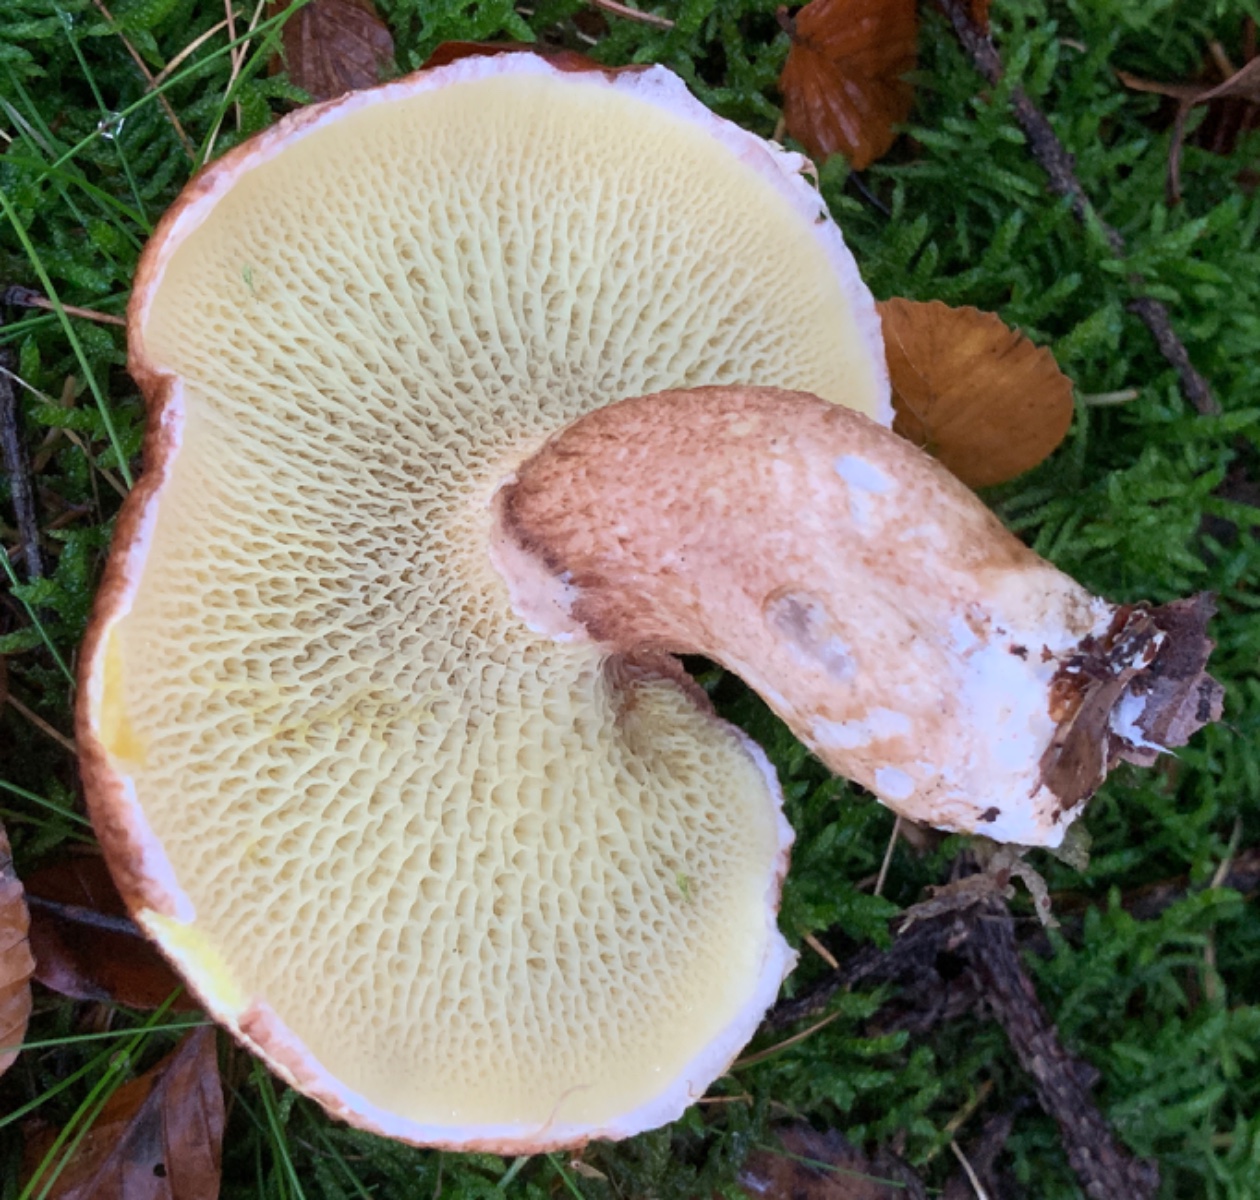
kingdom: Fungi
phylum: Basidiomycota
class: Agaricomycetes
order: Boletales
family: Suillaceae
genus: Suillus
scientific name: Suillus cavipes
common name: hulstokket slimrørhat
